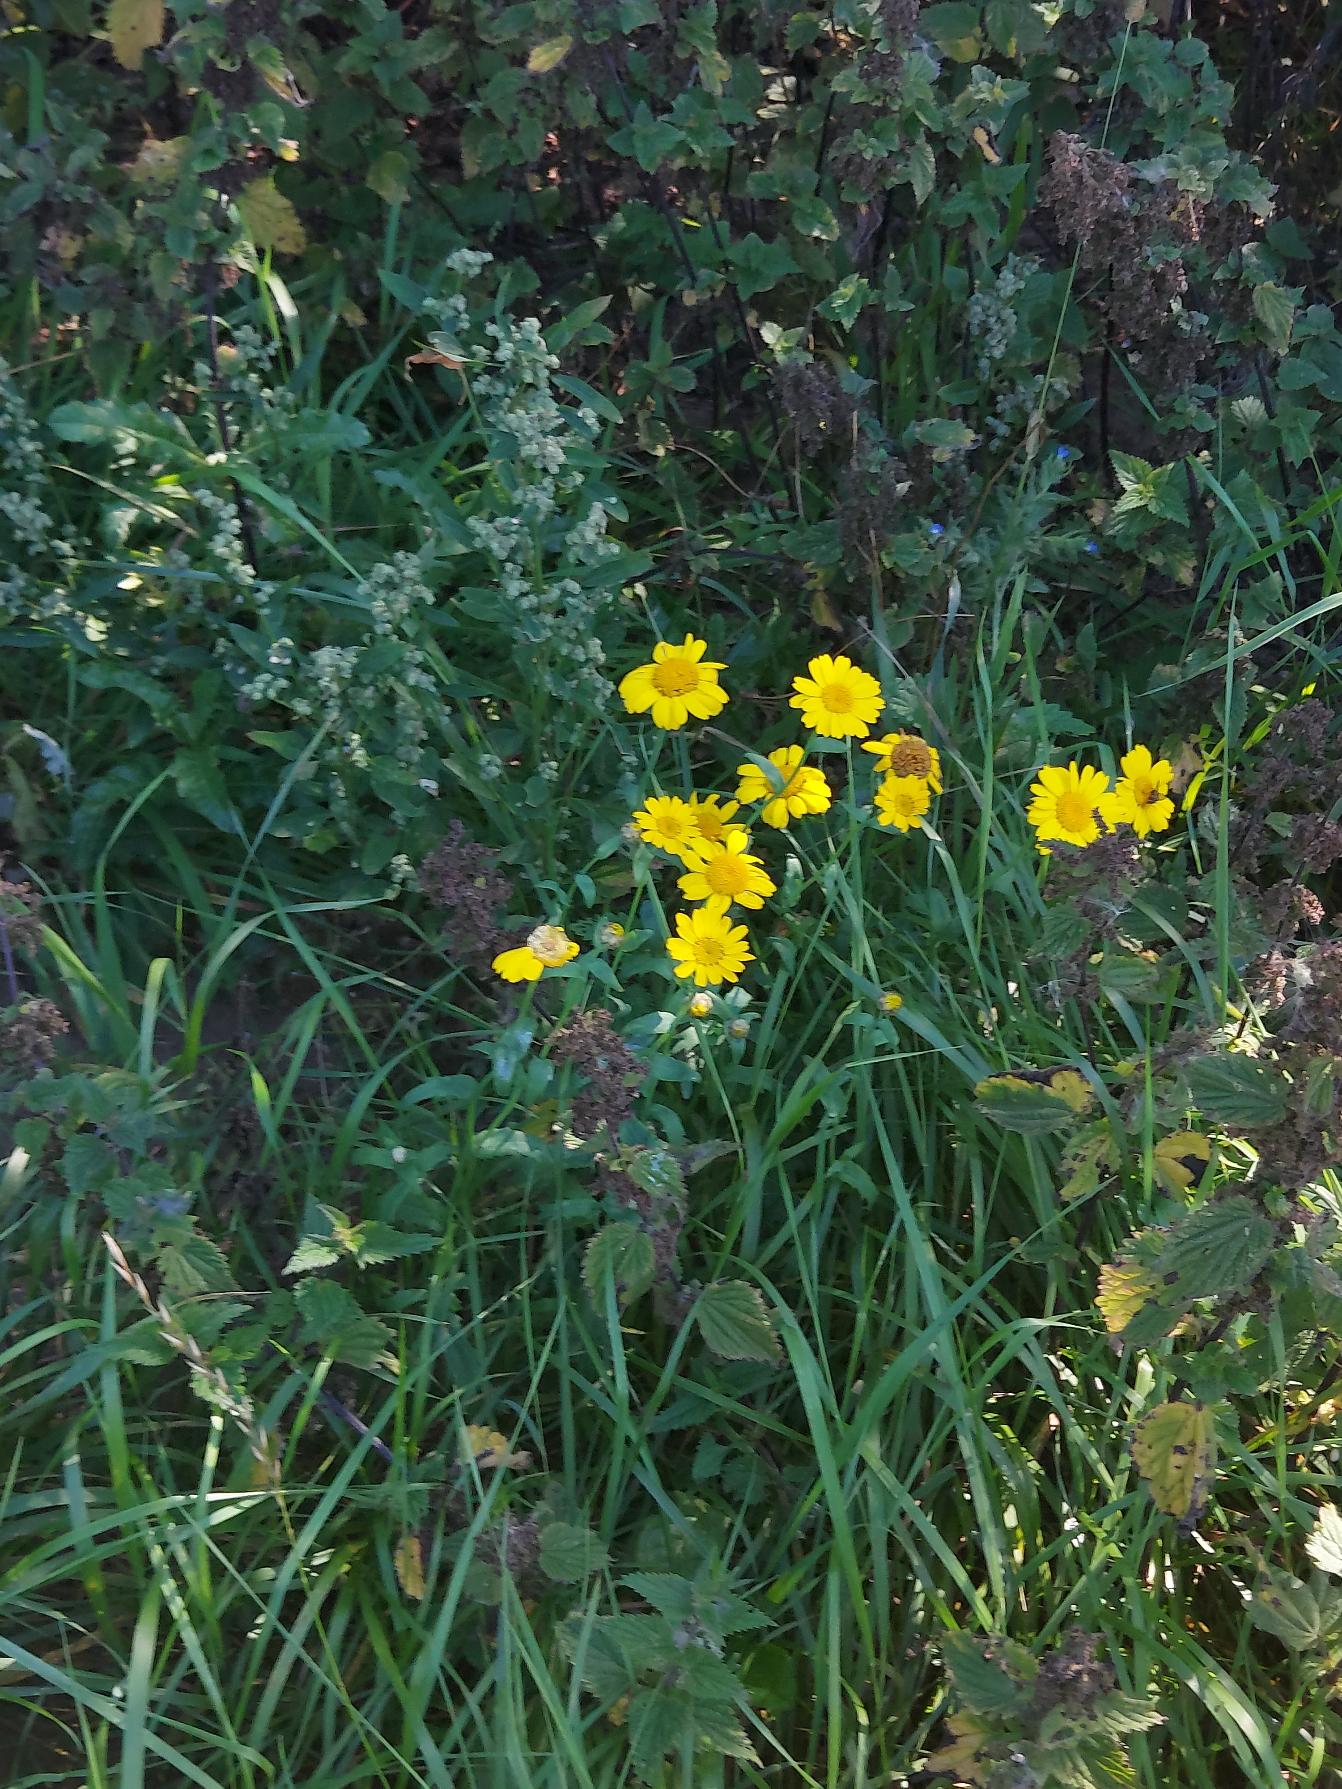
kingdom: Plantae
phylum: Tracheophyta
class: Magnoliopsida
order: Asterales
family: Asteraceae
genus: Glebionis
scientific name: Glebionis segetum
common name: Gul okseøje
